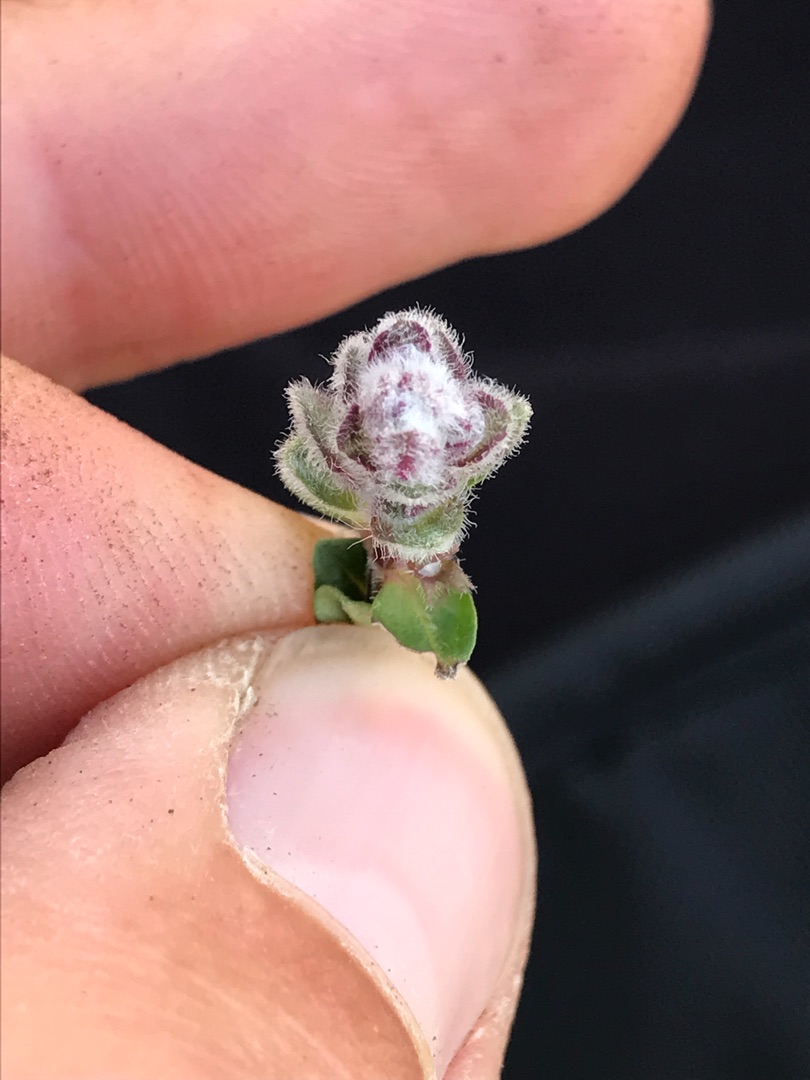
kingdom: Animalia
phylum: Arthropoda
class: Arachnida
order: Trombidiformes
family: Eriophyidae
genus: Aceria
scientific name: Aceria thomasi
